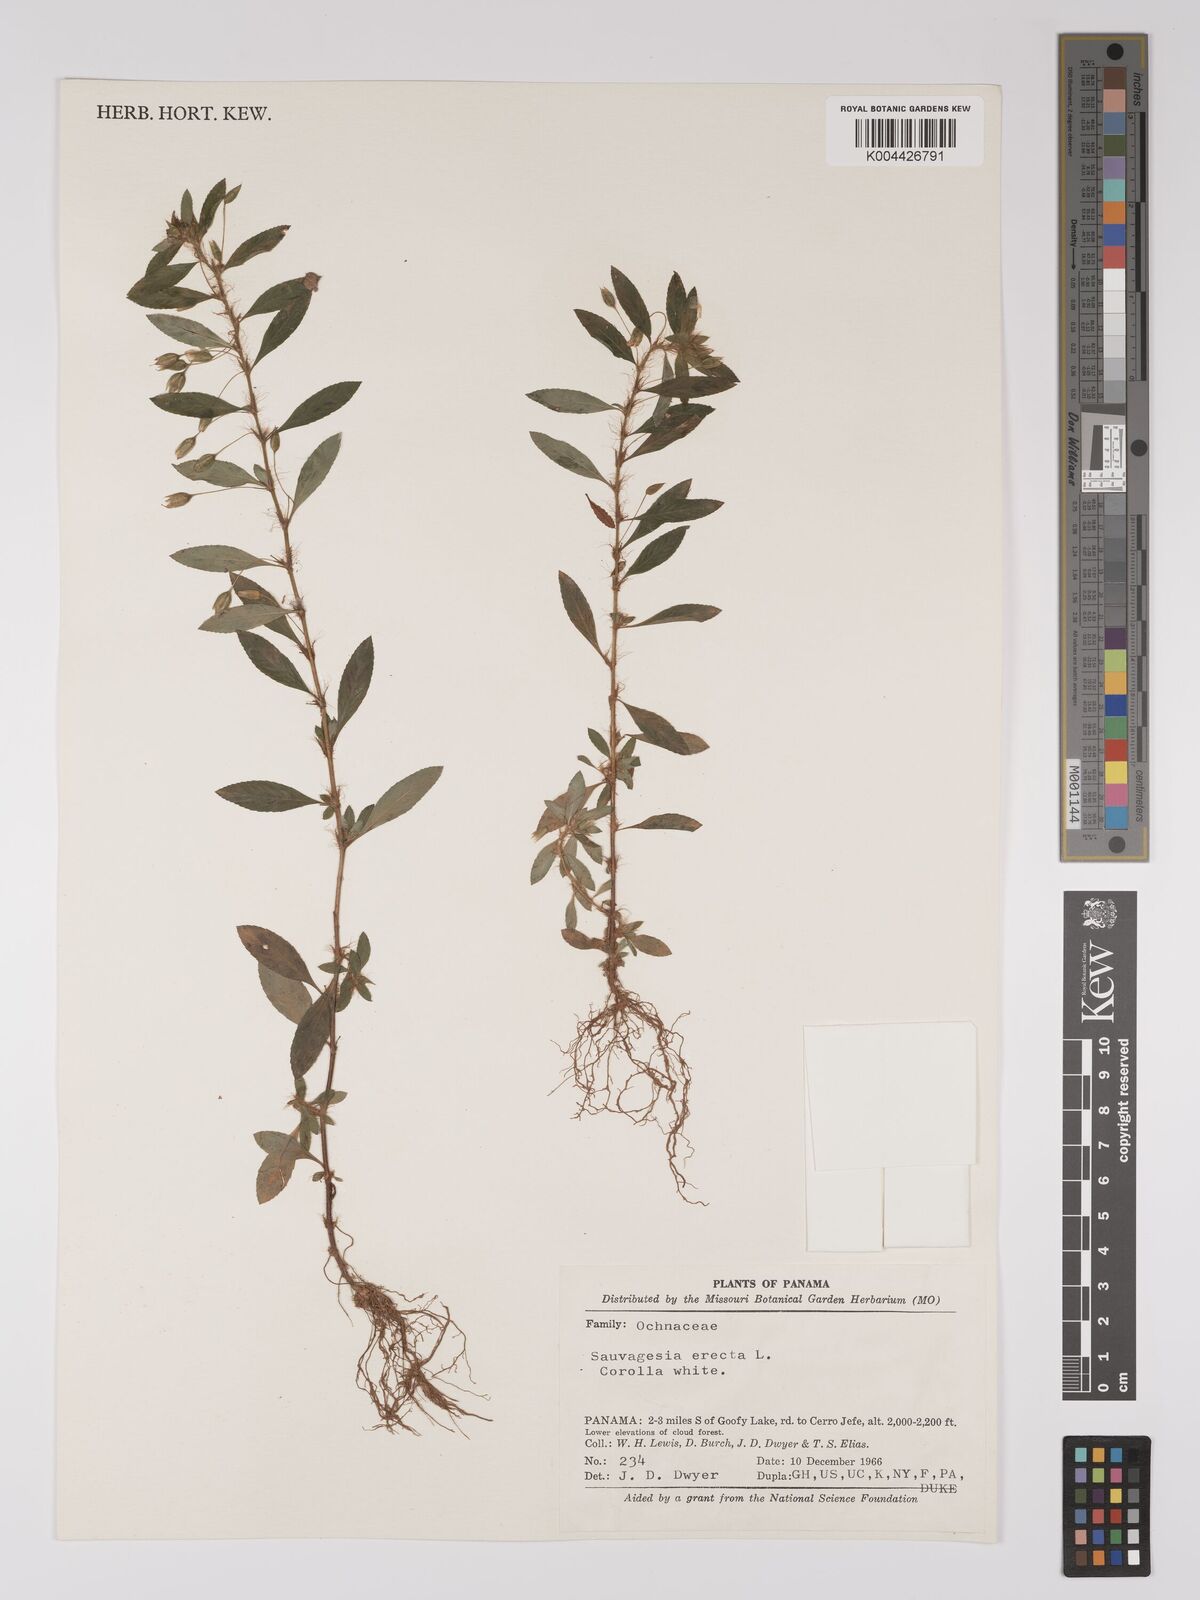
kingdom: Plantae
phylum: Tracheophyta
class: Magnoliopsida
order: Malpighiales
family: Ochnaceae
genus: Sauvagesia
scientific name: Sauvagesia erecta
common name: Creole tea
